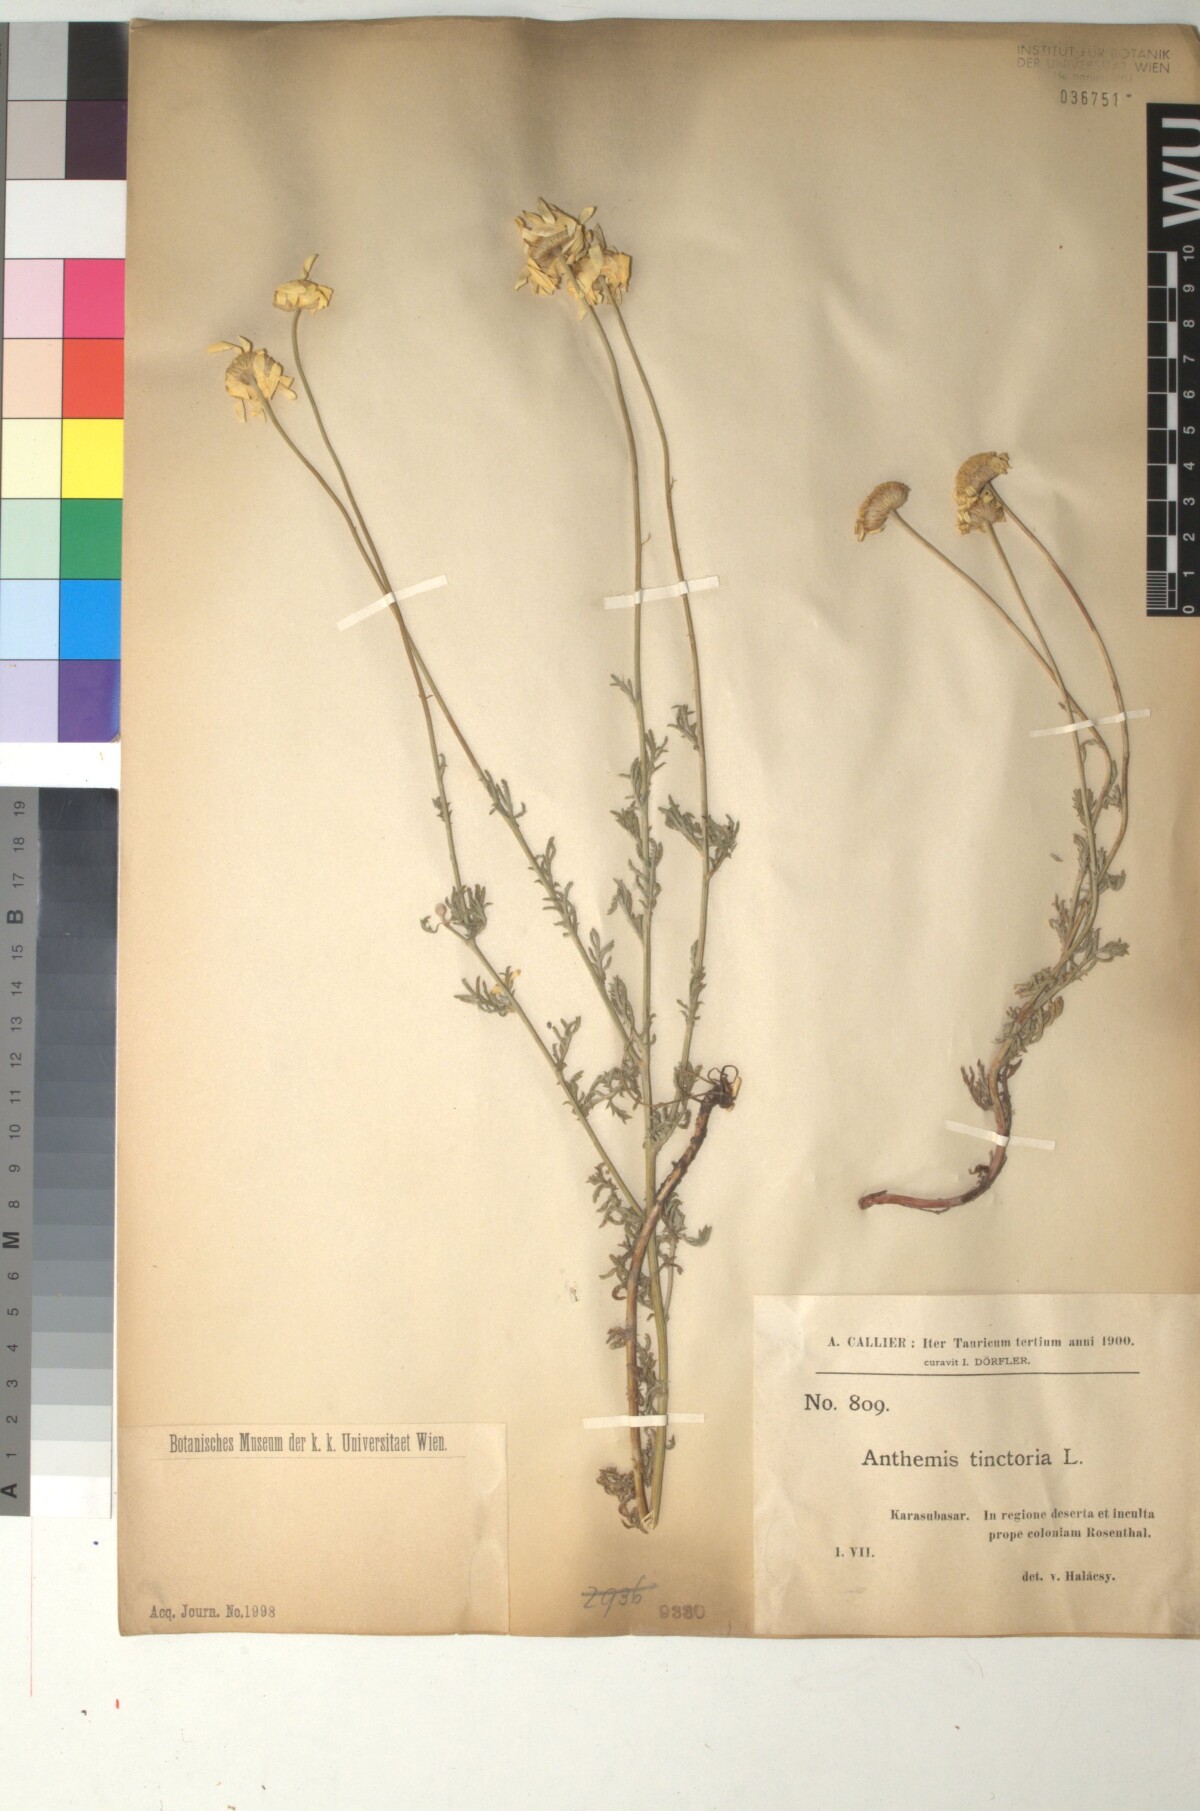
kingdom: Plantae
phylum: Tracheophyta
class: Magnoliopsida
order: Asterales
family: Asteraceae
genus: Cota
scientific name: Cota tinctoria
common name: Golden chamomile
